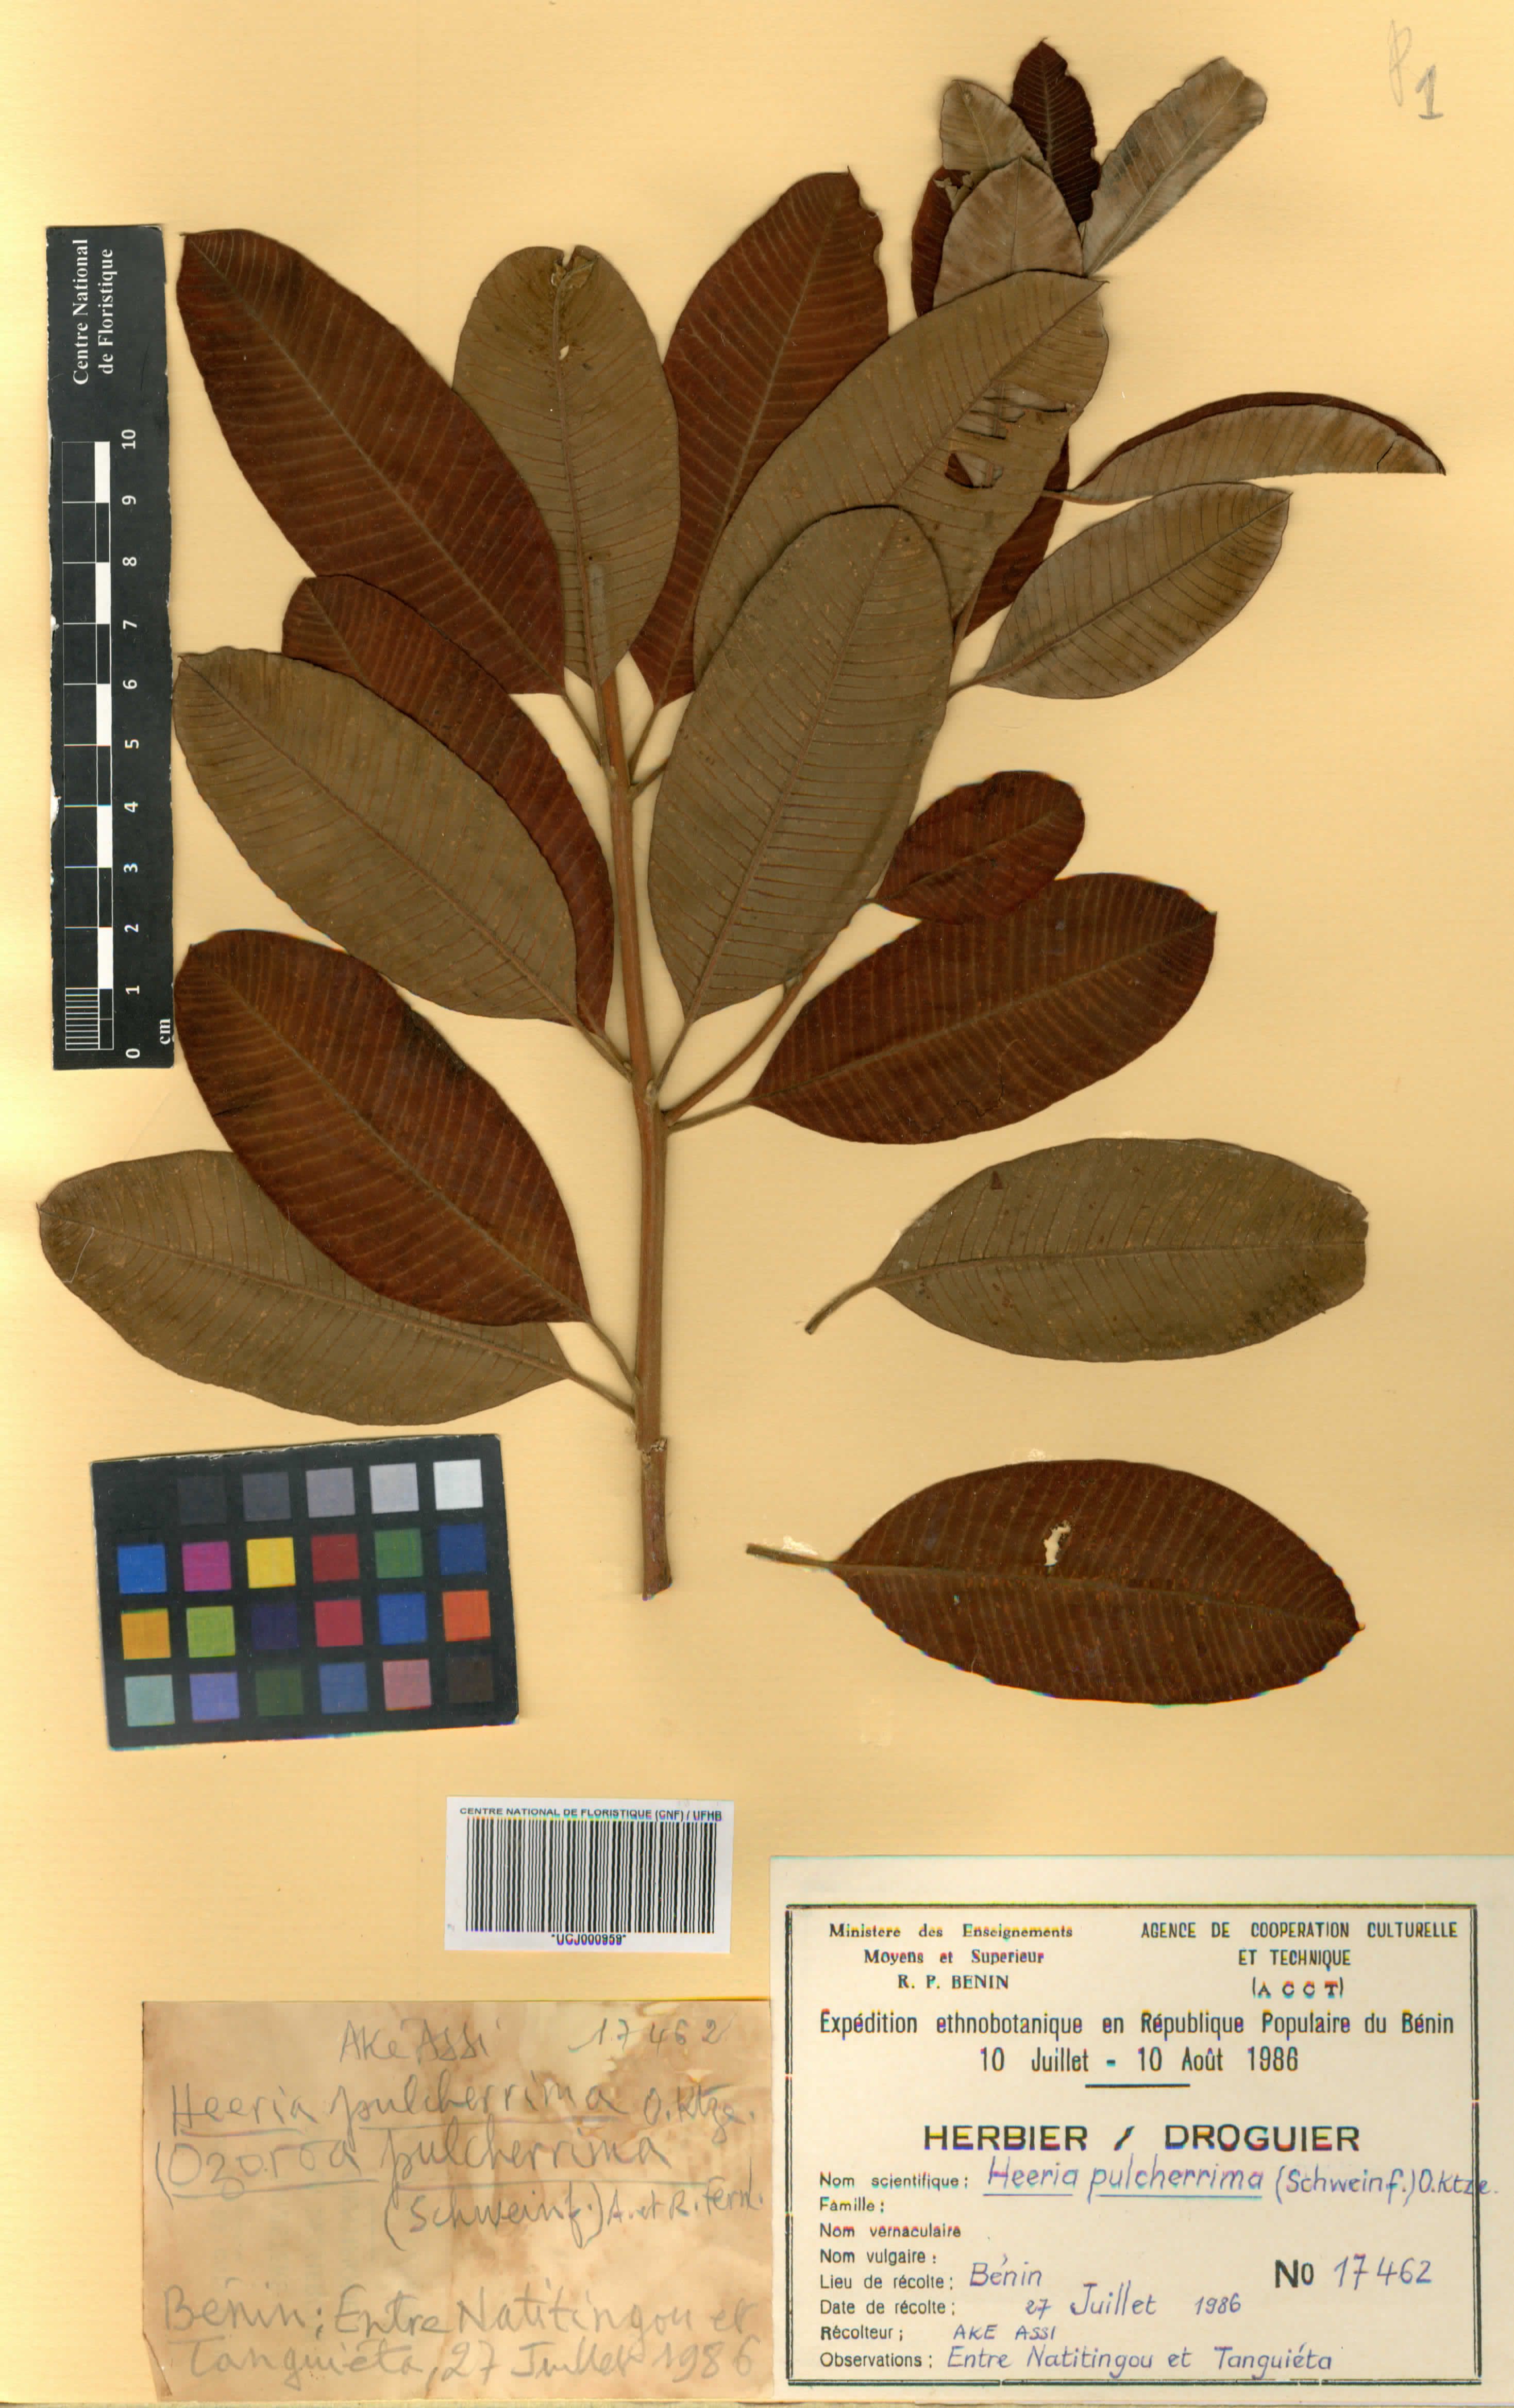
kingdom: Plantae
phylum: Tracheophyta
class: Magnoliopsida
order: Sapindales
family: Anacardiaceae
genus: Ozoroa
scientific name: Ozoroa pulcherrima
